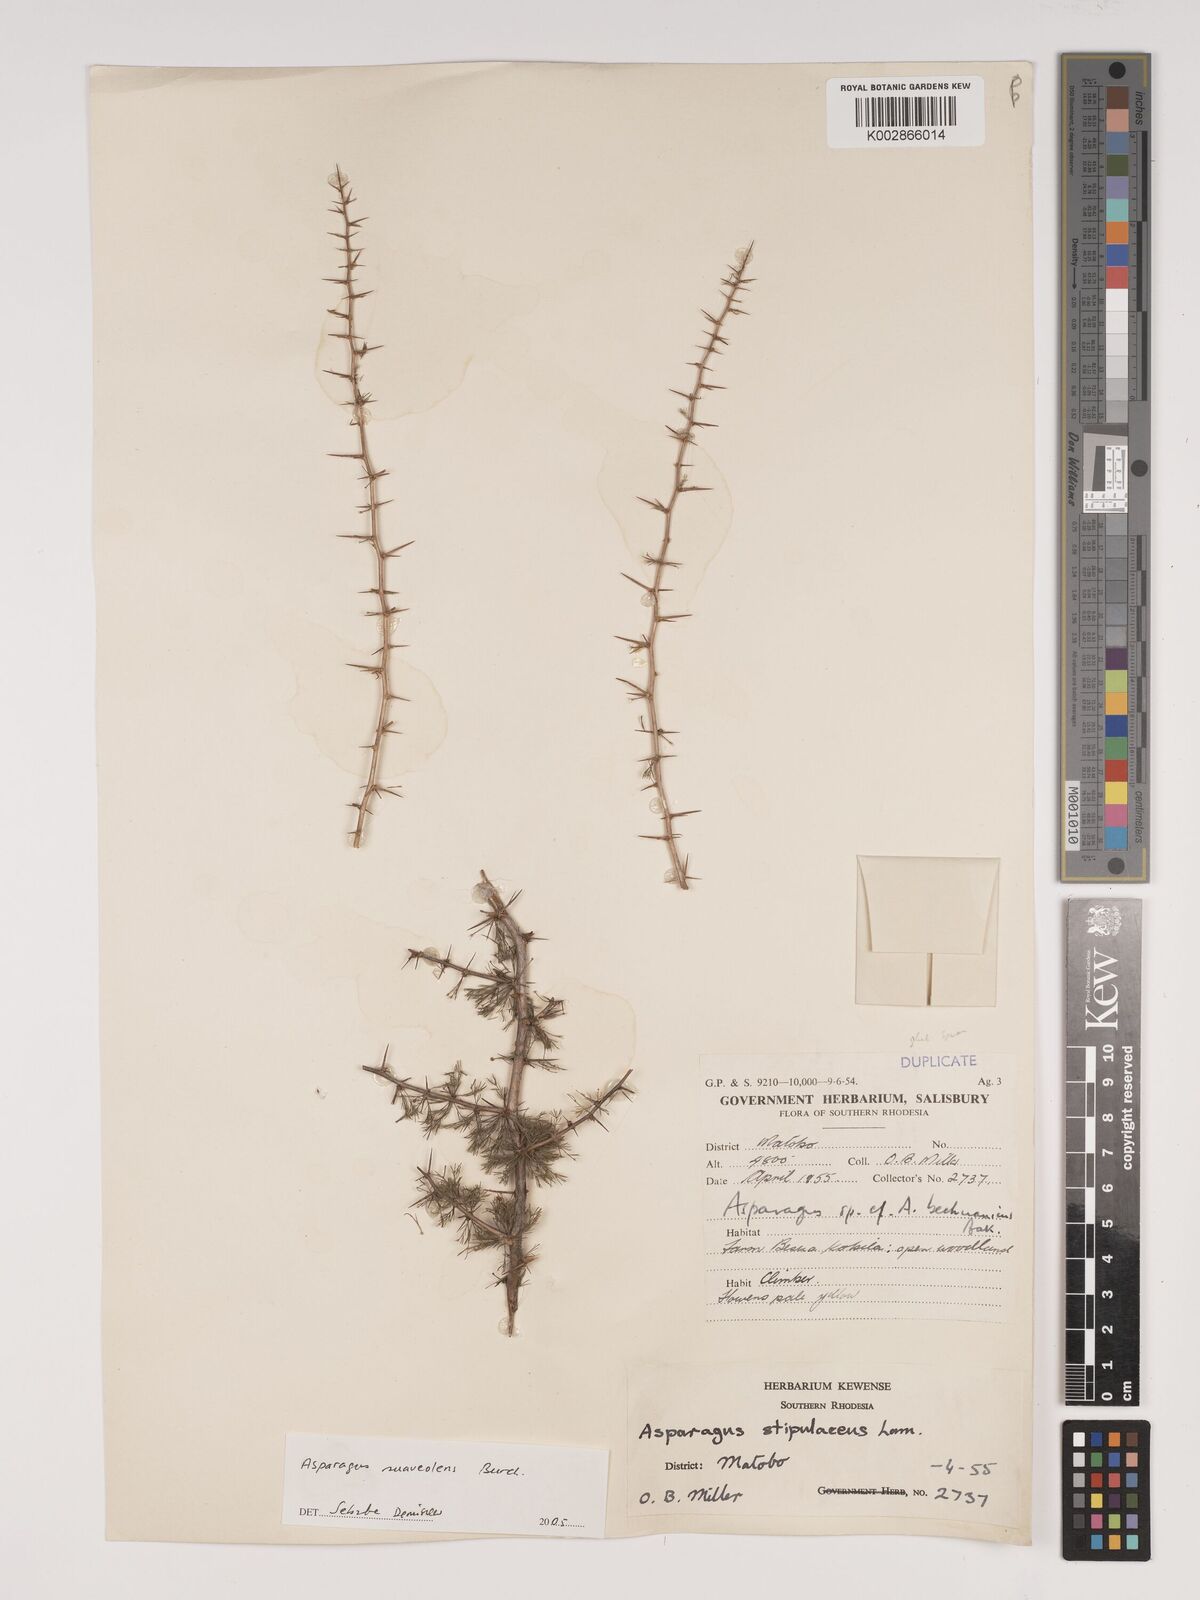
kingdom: Plantae
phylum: Tracheophyta
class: Liliopsida
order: Asparagales
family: Asparagaceae
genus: Asparagus
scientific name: Asparagus suaveolens
